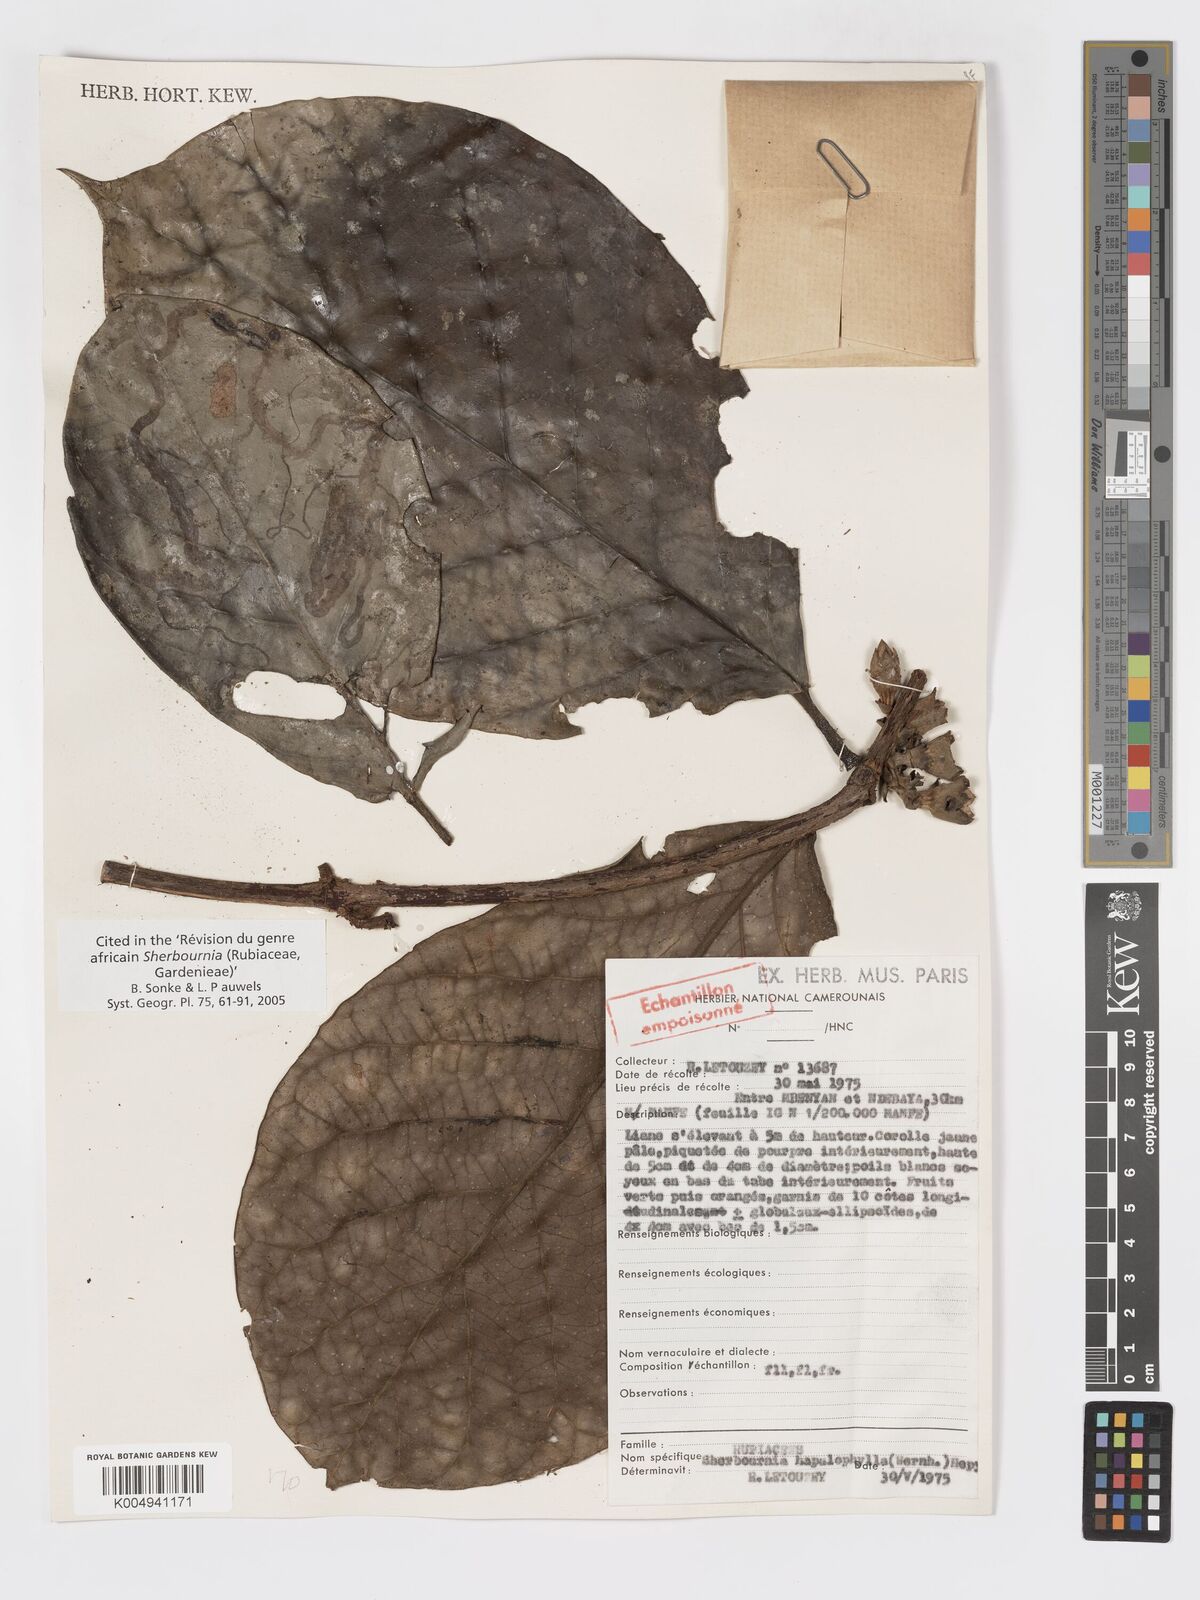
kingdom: Plantae
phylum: Tracheophyta
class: Magnoliopsida
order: Gentianales
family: Rubiaceae
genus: Sherbournia
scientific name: Sherbournia hapalophylla
